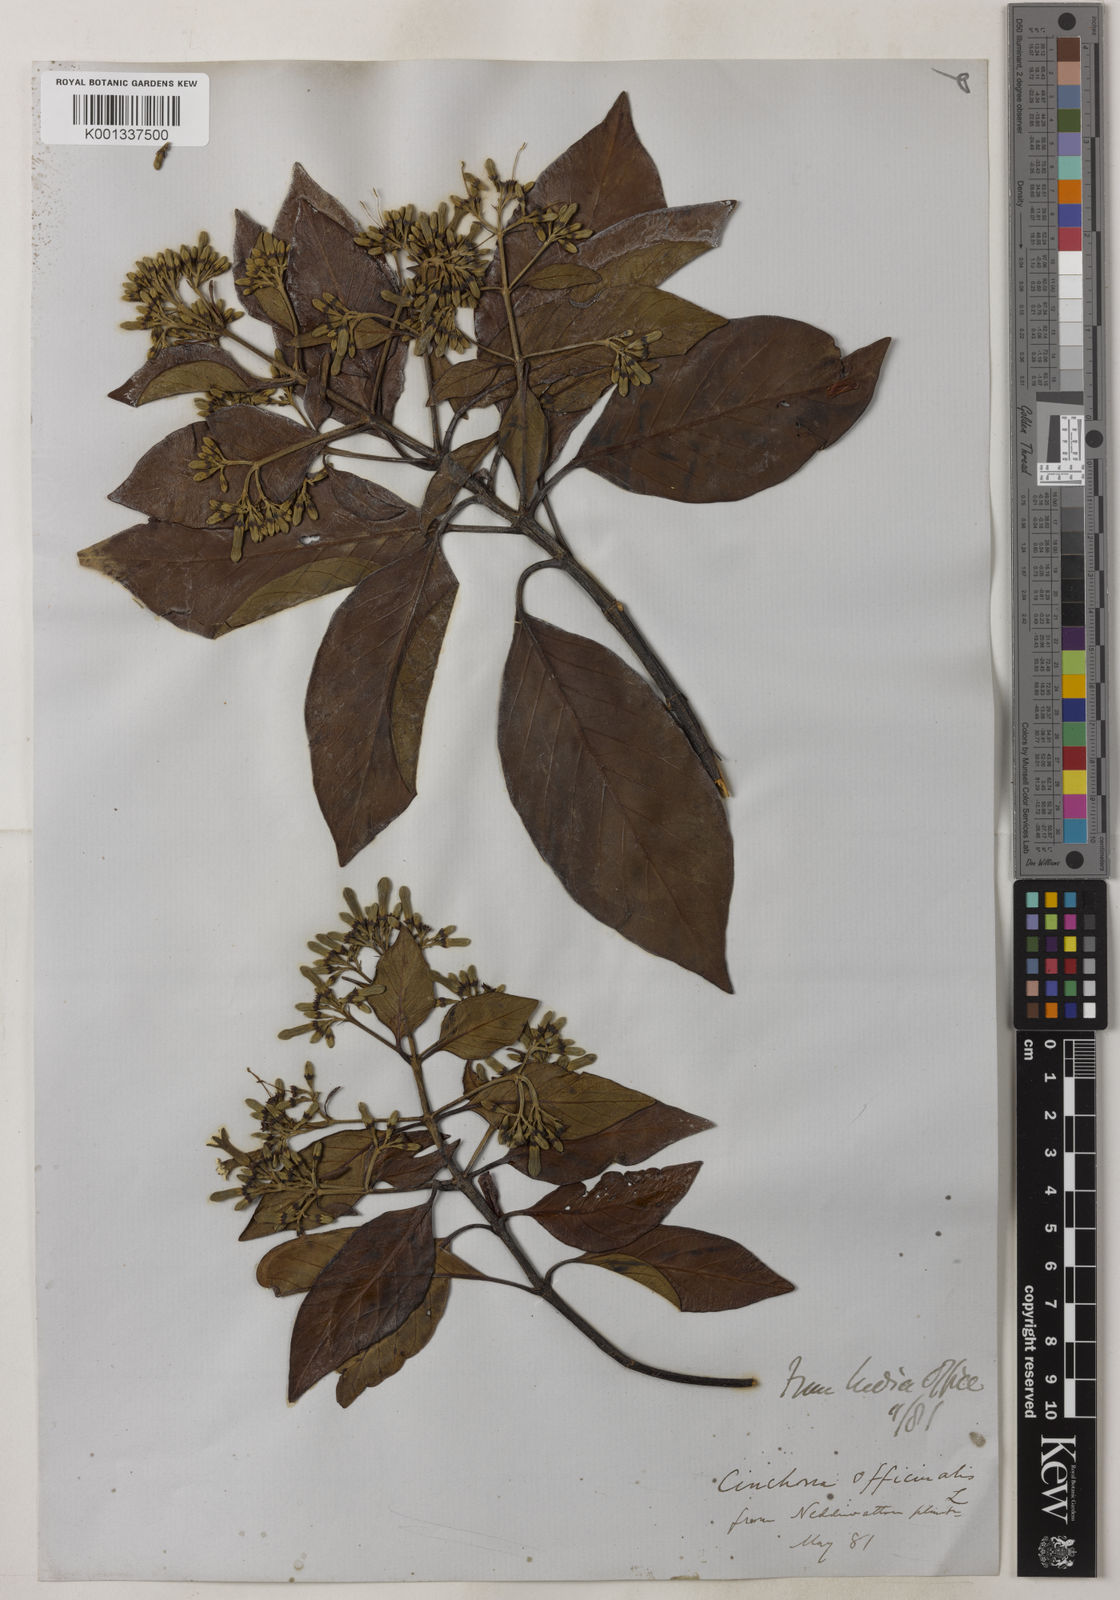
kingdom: Plantae
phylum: Tracheophyta
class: Magnoliopsida
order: Gentianales
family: Rubiaceae
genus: Cinchona
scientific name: Cinchona officinalis
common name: Lojabark
